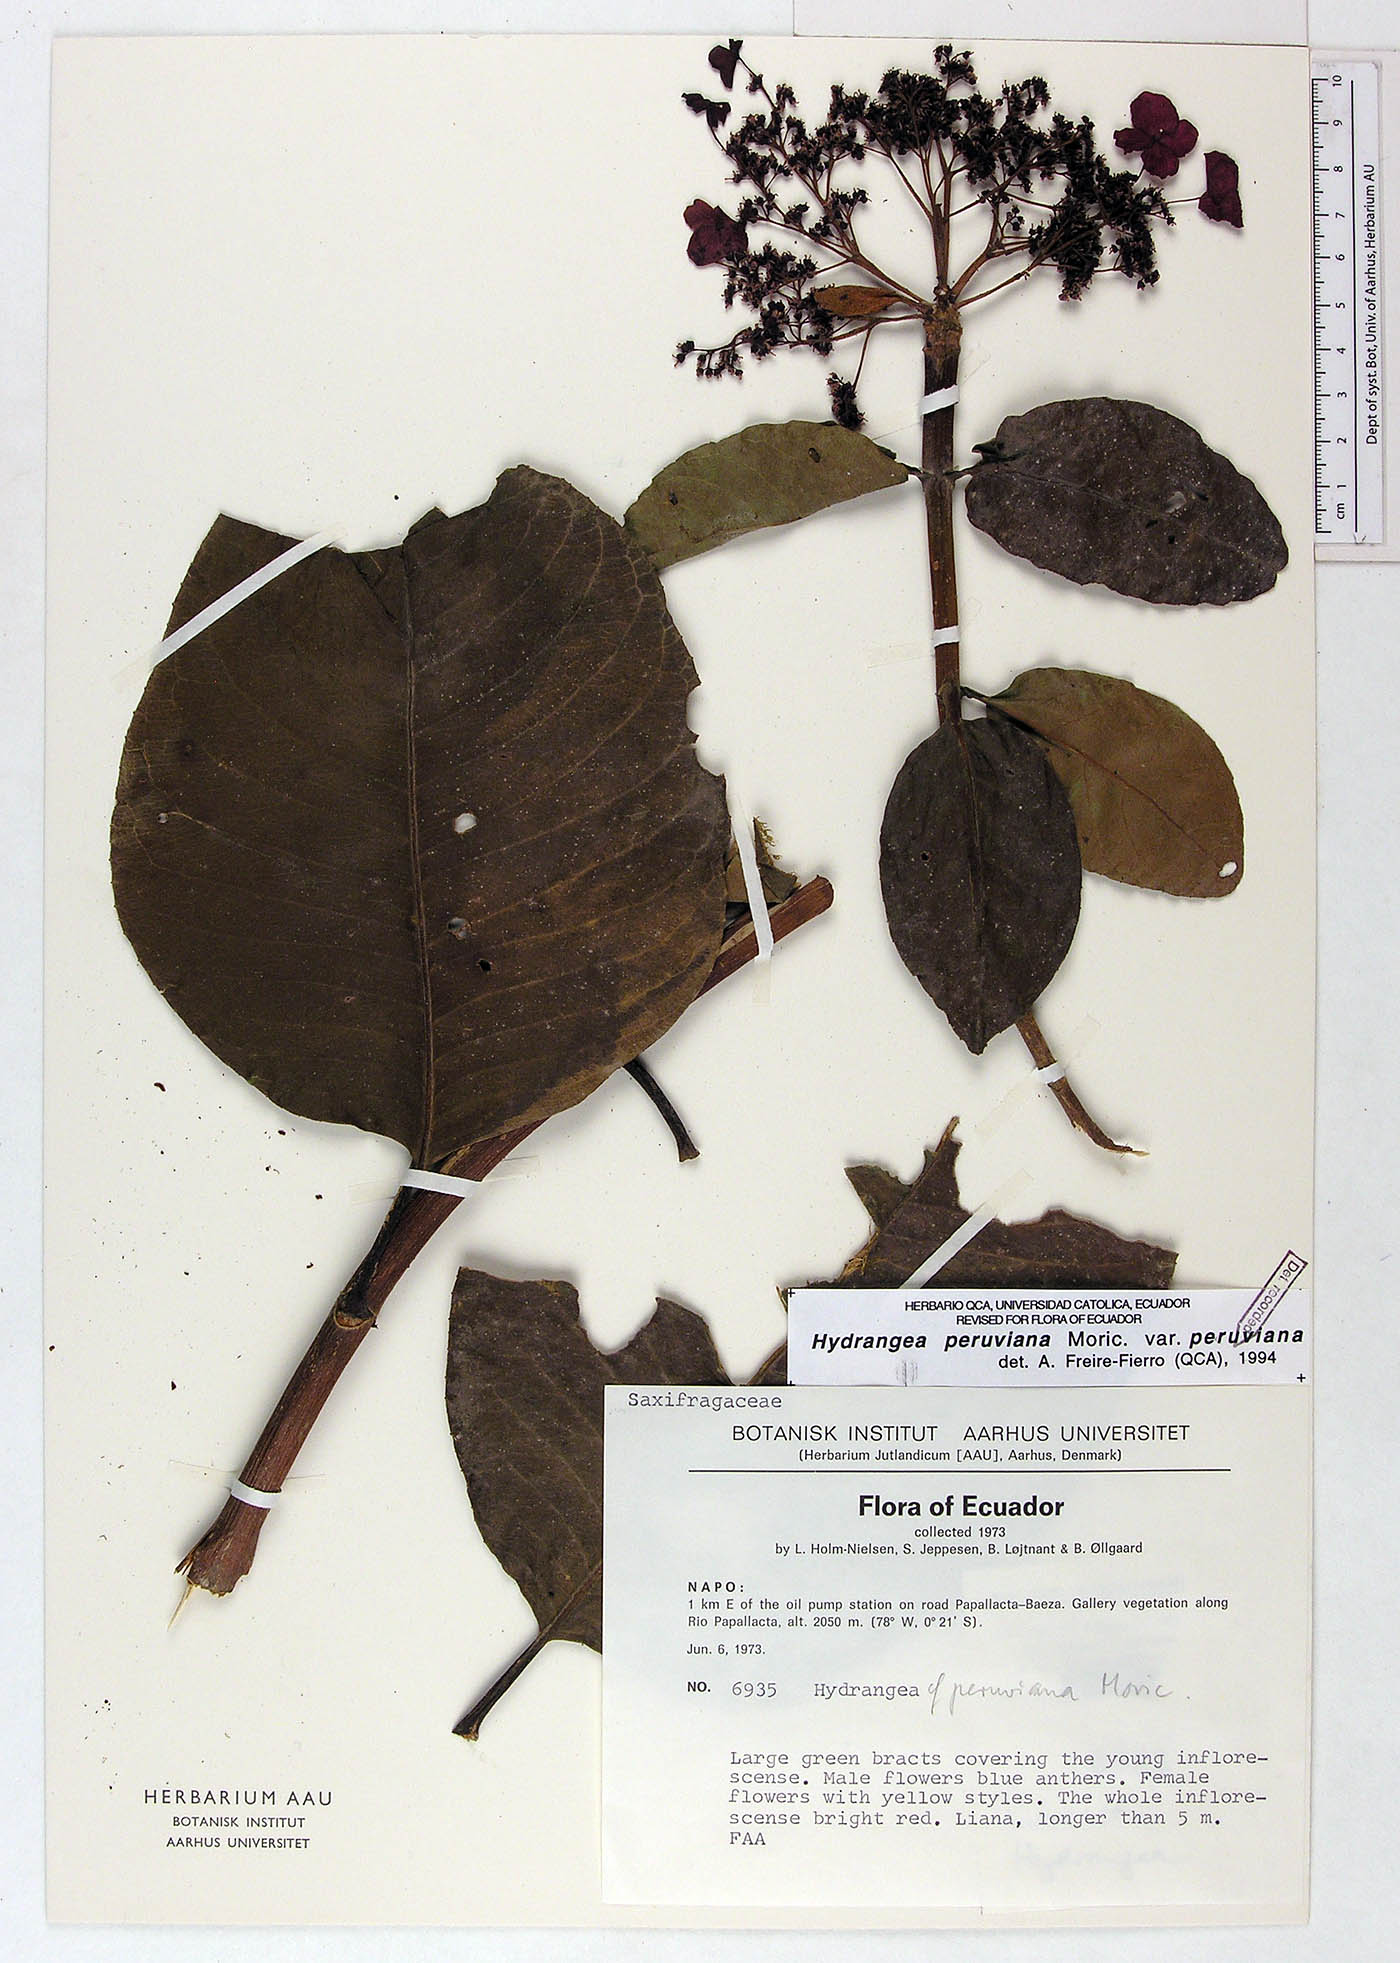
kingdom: Plantae
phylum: Tracheophyta
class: Magnoliopsida
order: Cornales
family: Hydrangeaceae
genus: Hydrangea
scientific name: Hydrangea peruviana
